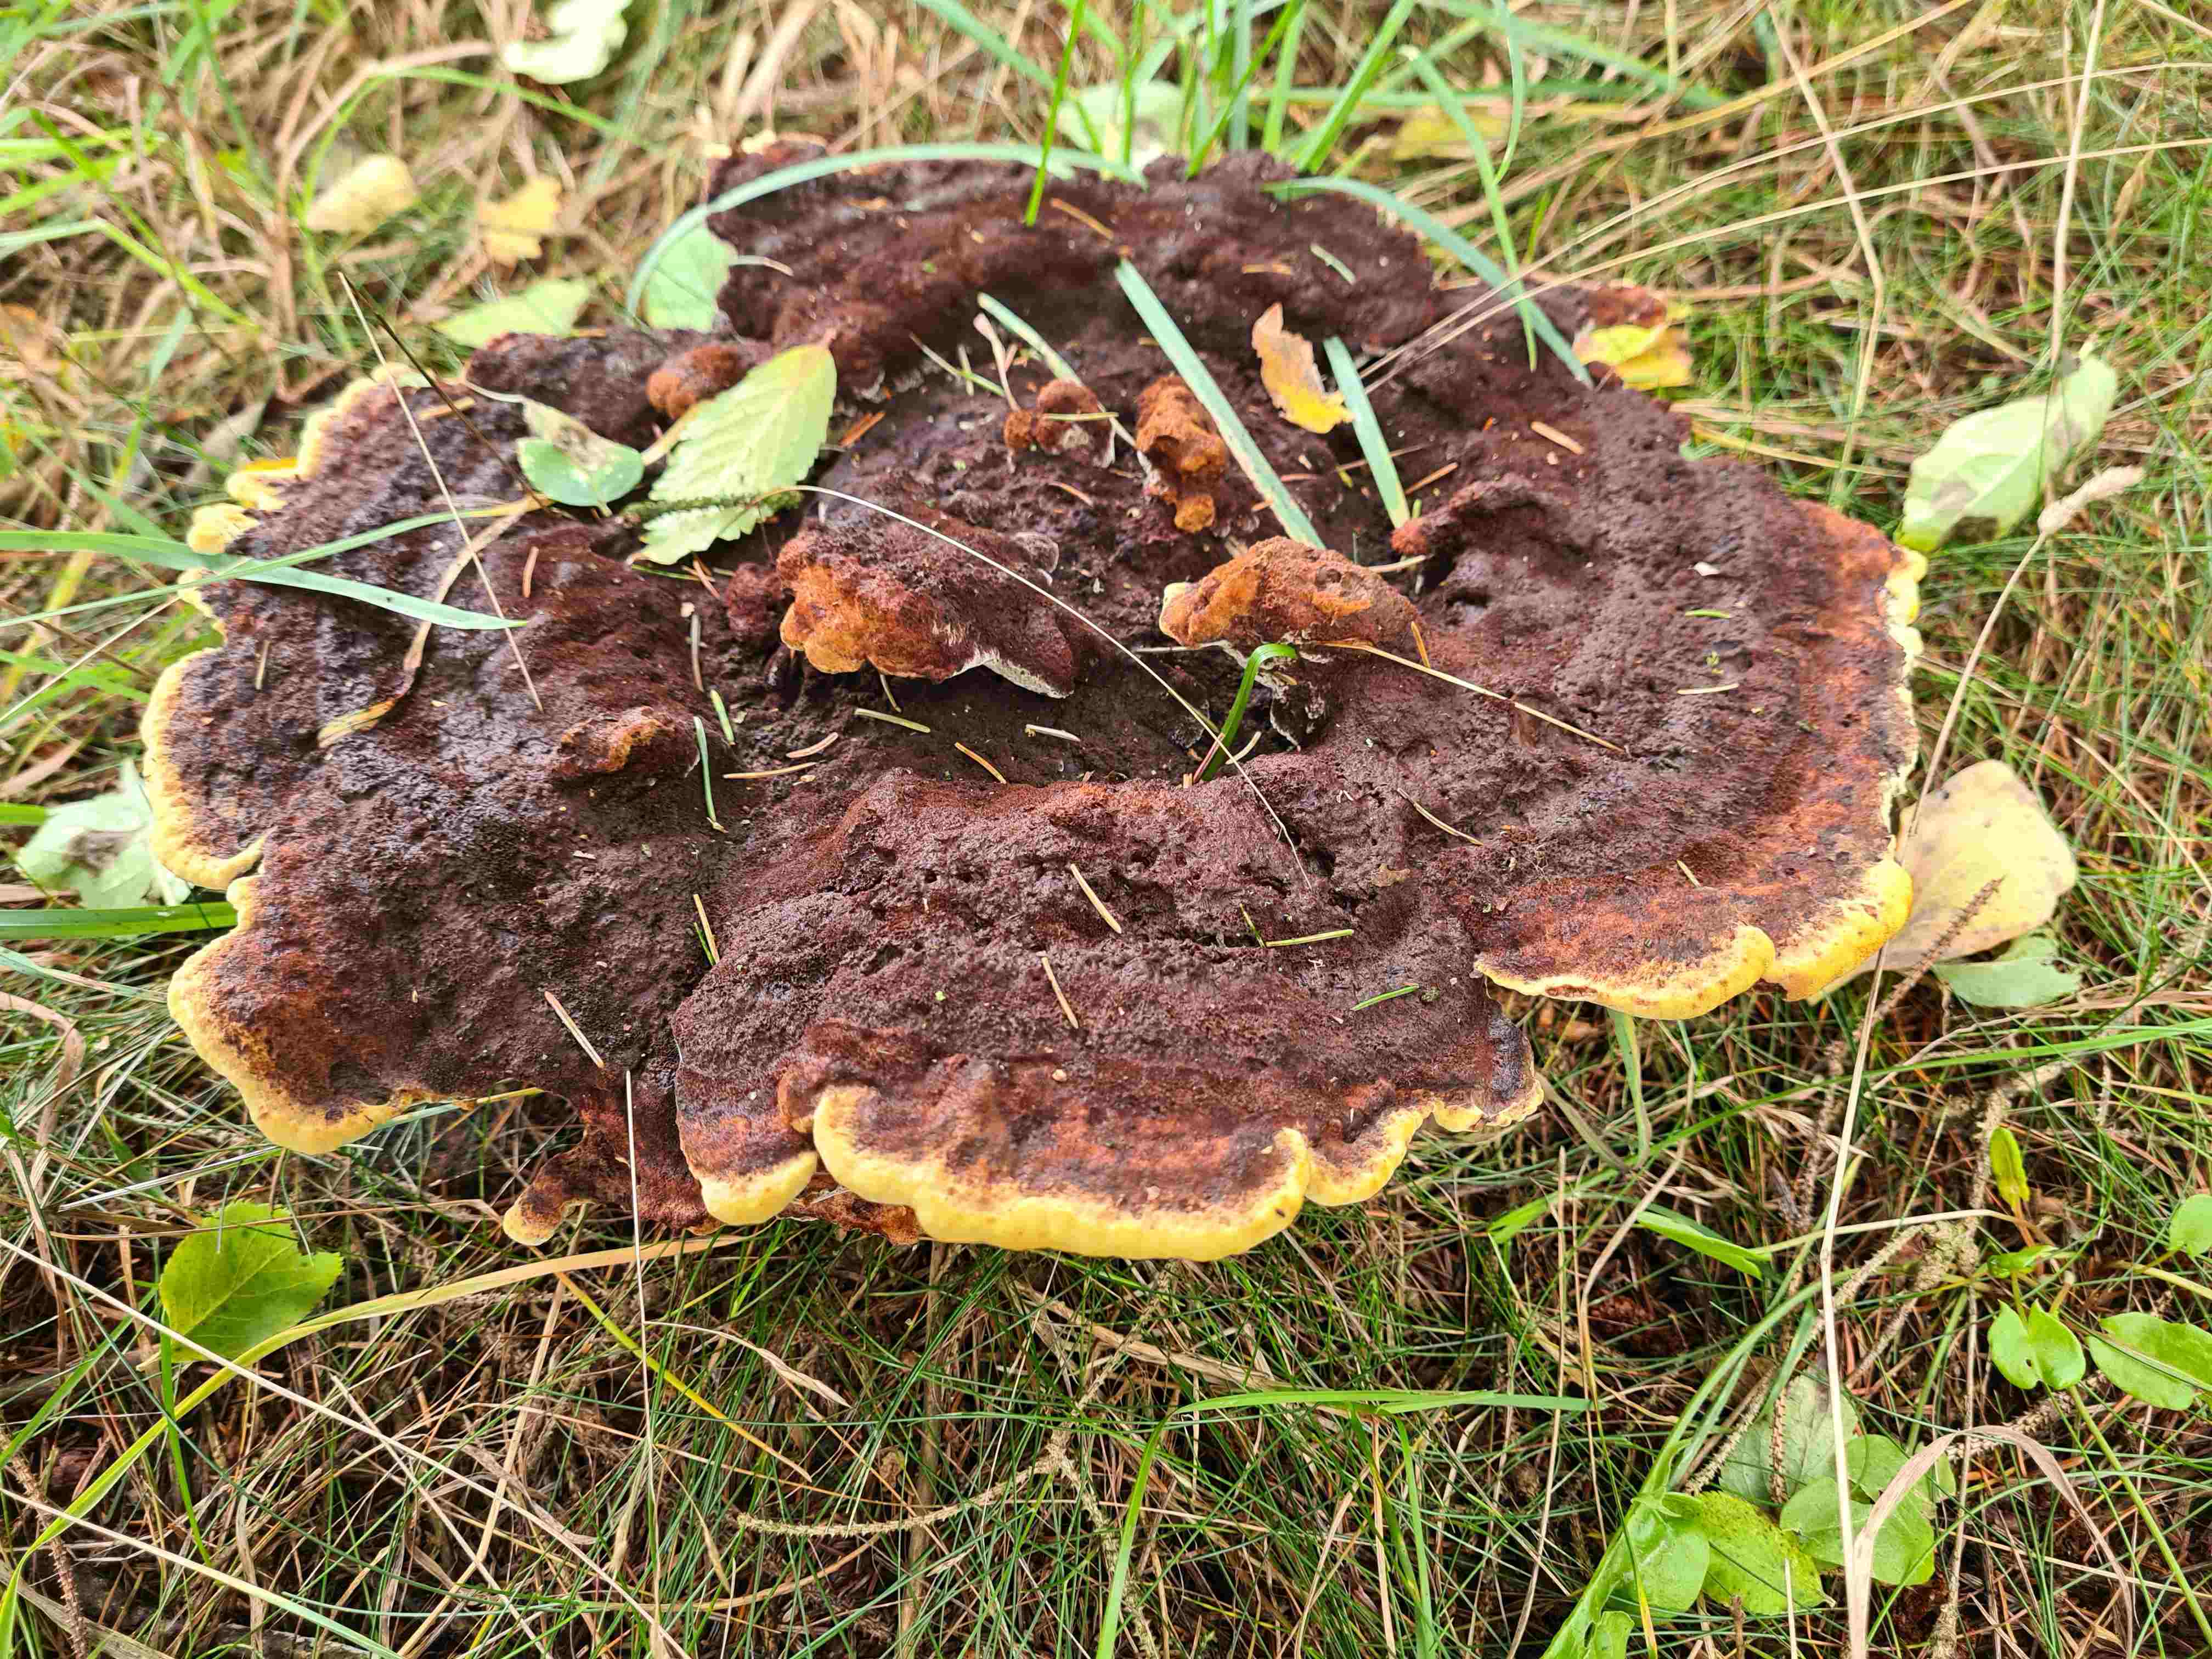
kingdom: Fungi
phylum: Basidiomycota
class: Agaricomycetes
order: Polyporales
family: Laetiporaceae
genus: Phaeolus
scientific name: Phaeolus schweinitzii
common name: brunporesvamp
